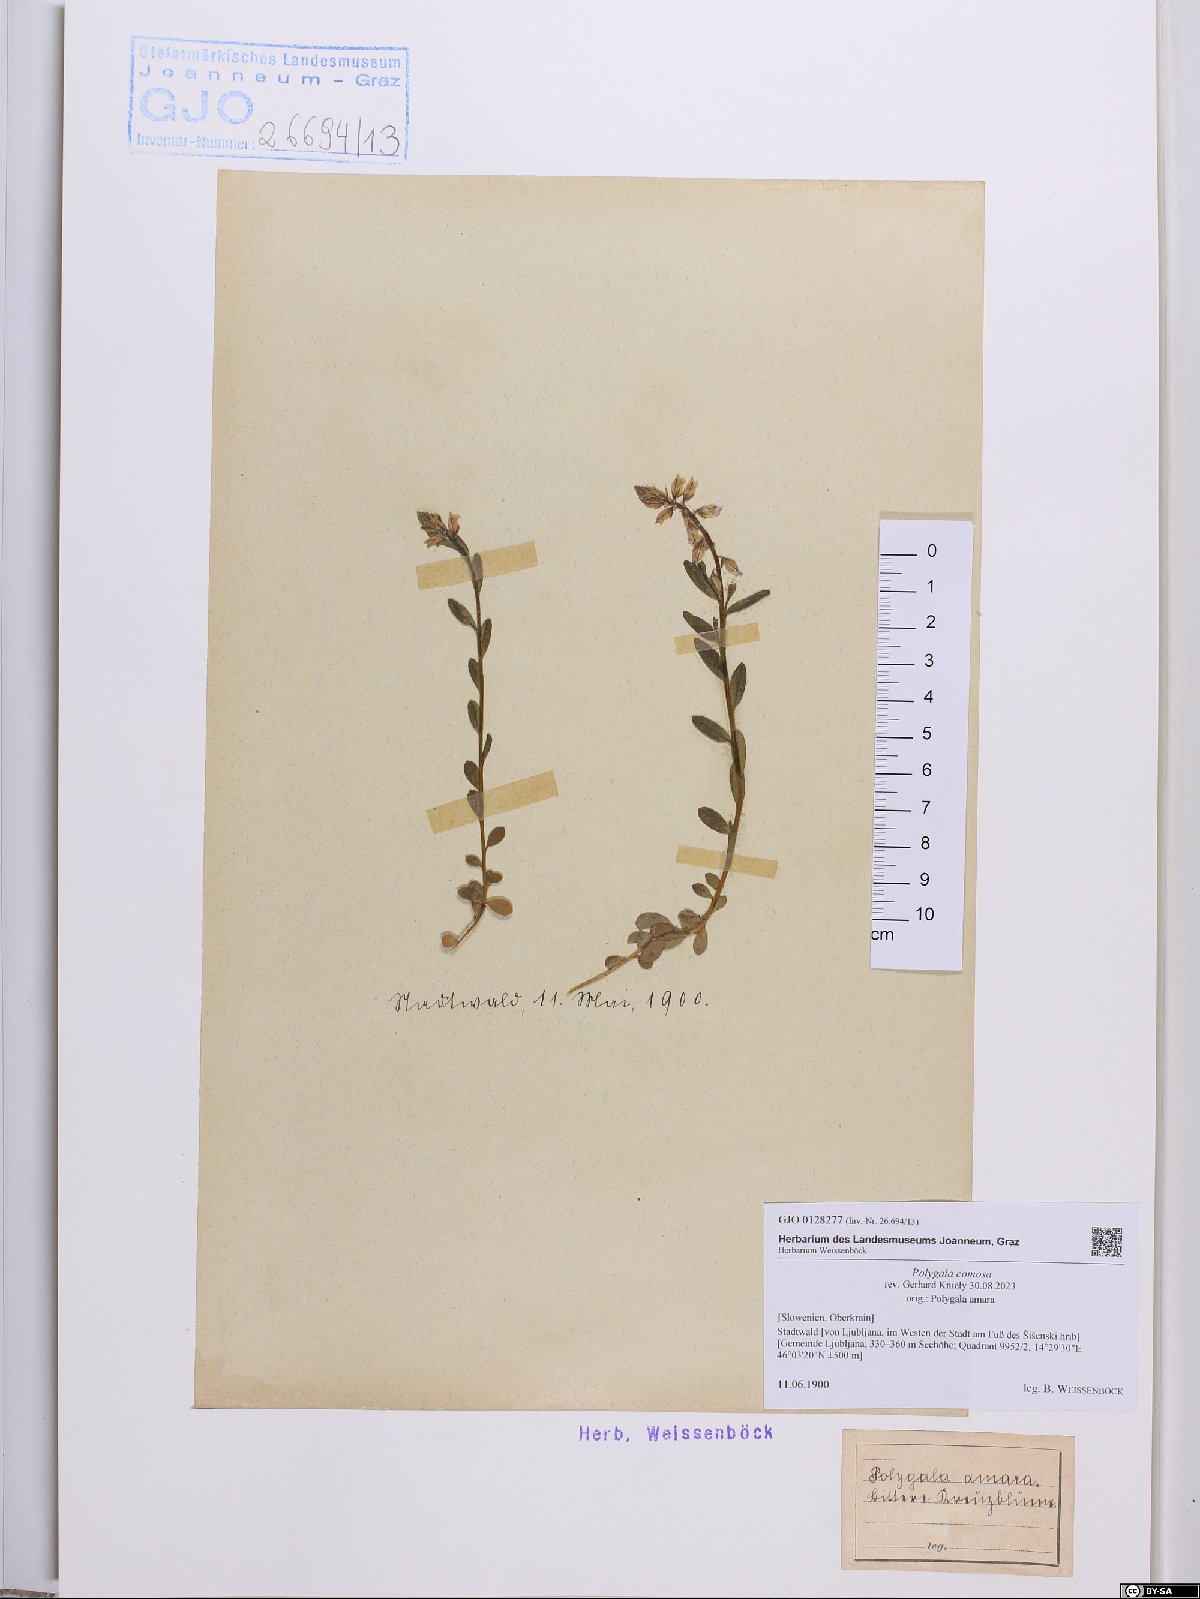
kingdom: Plantae
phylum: Tracheophyta
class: Magnoliopsida
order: Fabales
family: Polygalaceae
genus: Polygala
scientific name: Polygala comosa
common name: Tufted milkwort
